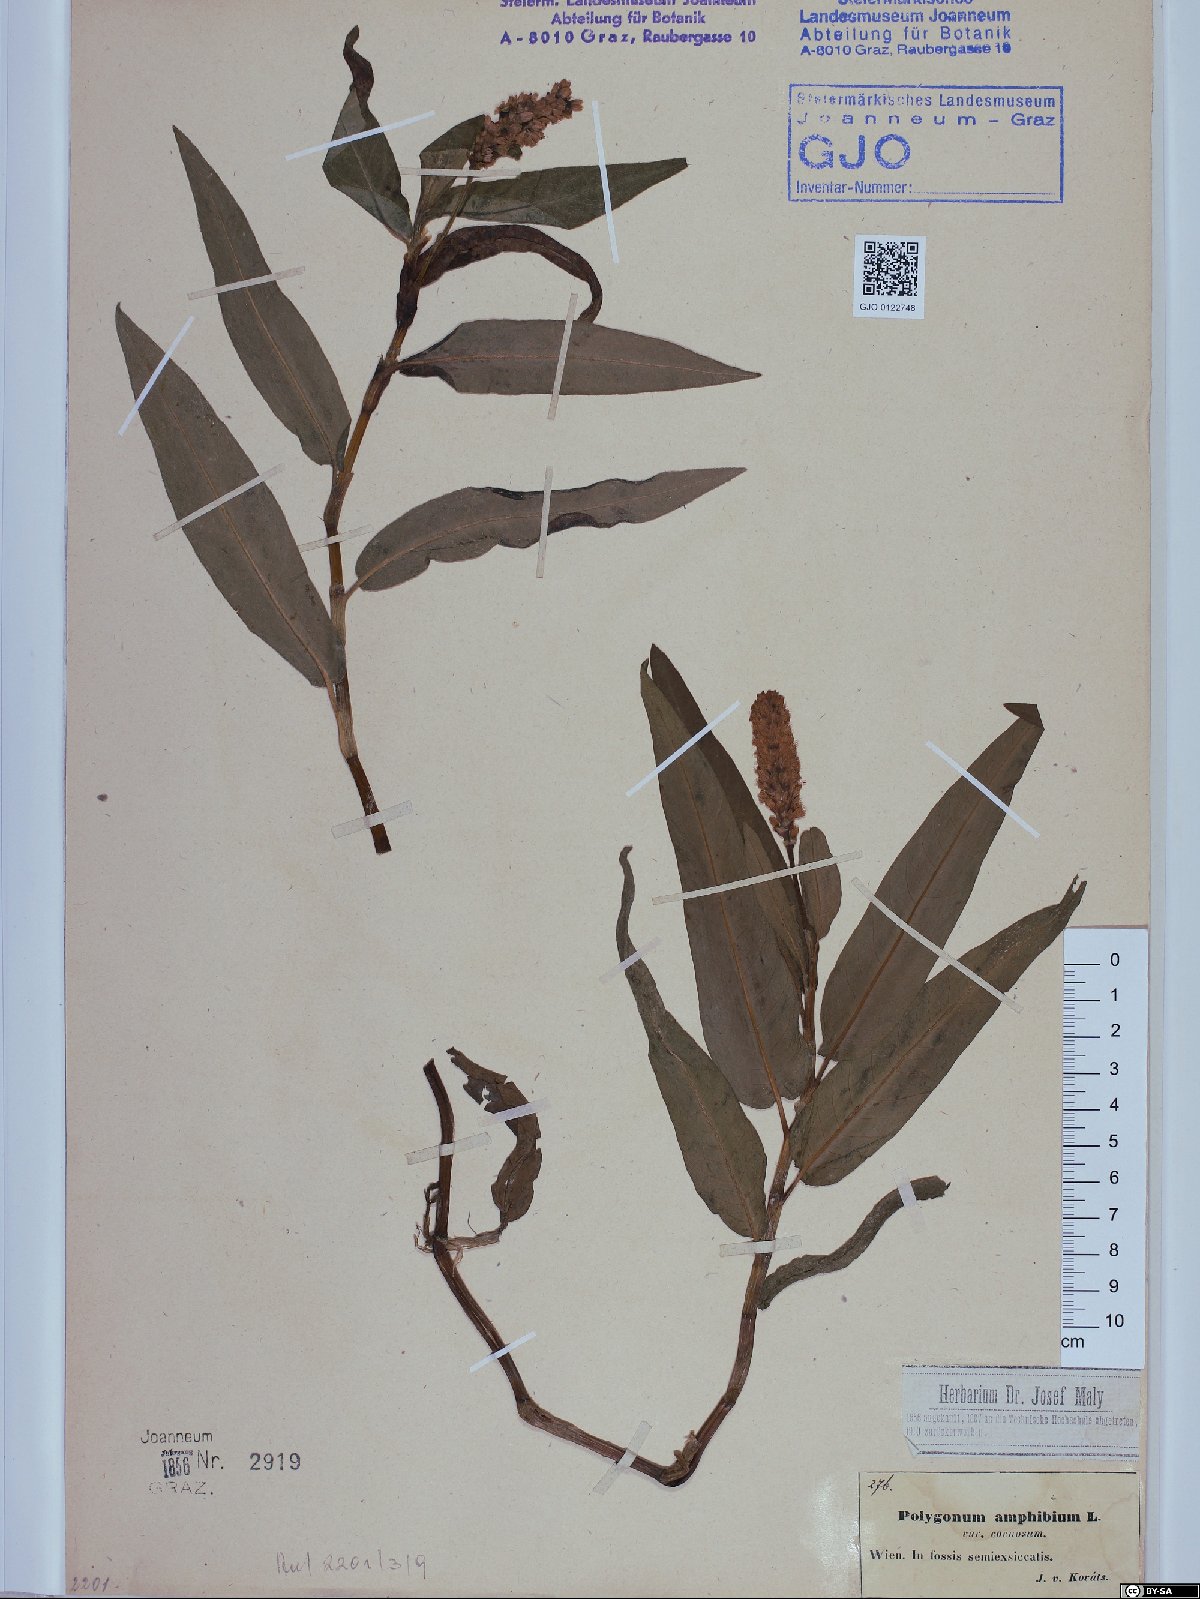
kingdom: Plantae
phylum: Tracheophyta
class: Magnoliopsida
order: Caryophyllales
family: Polygonaceae
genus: Persicaria
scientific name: Persicaria amphibia
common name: Amphibious bistort
